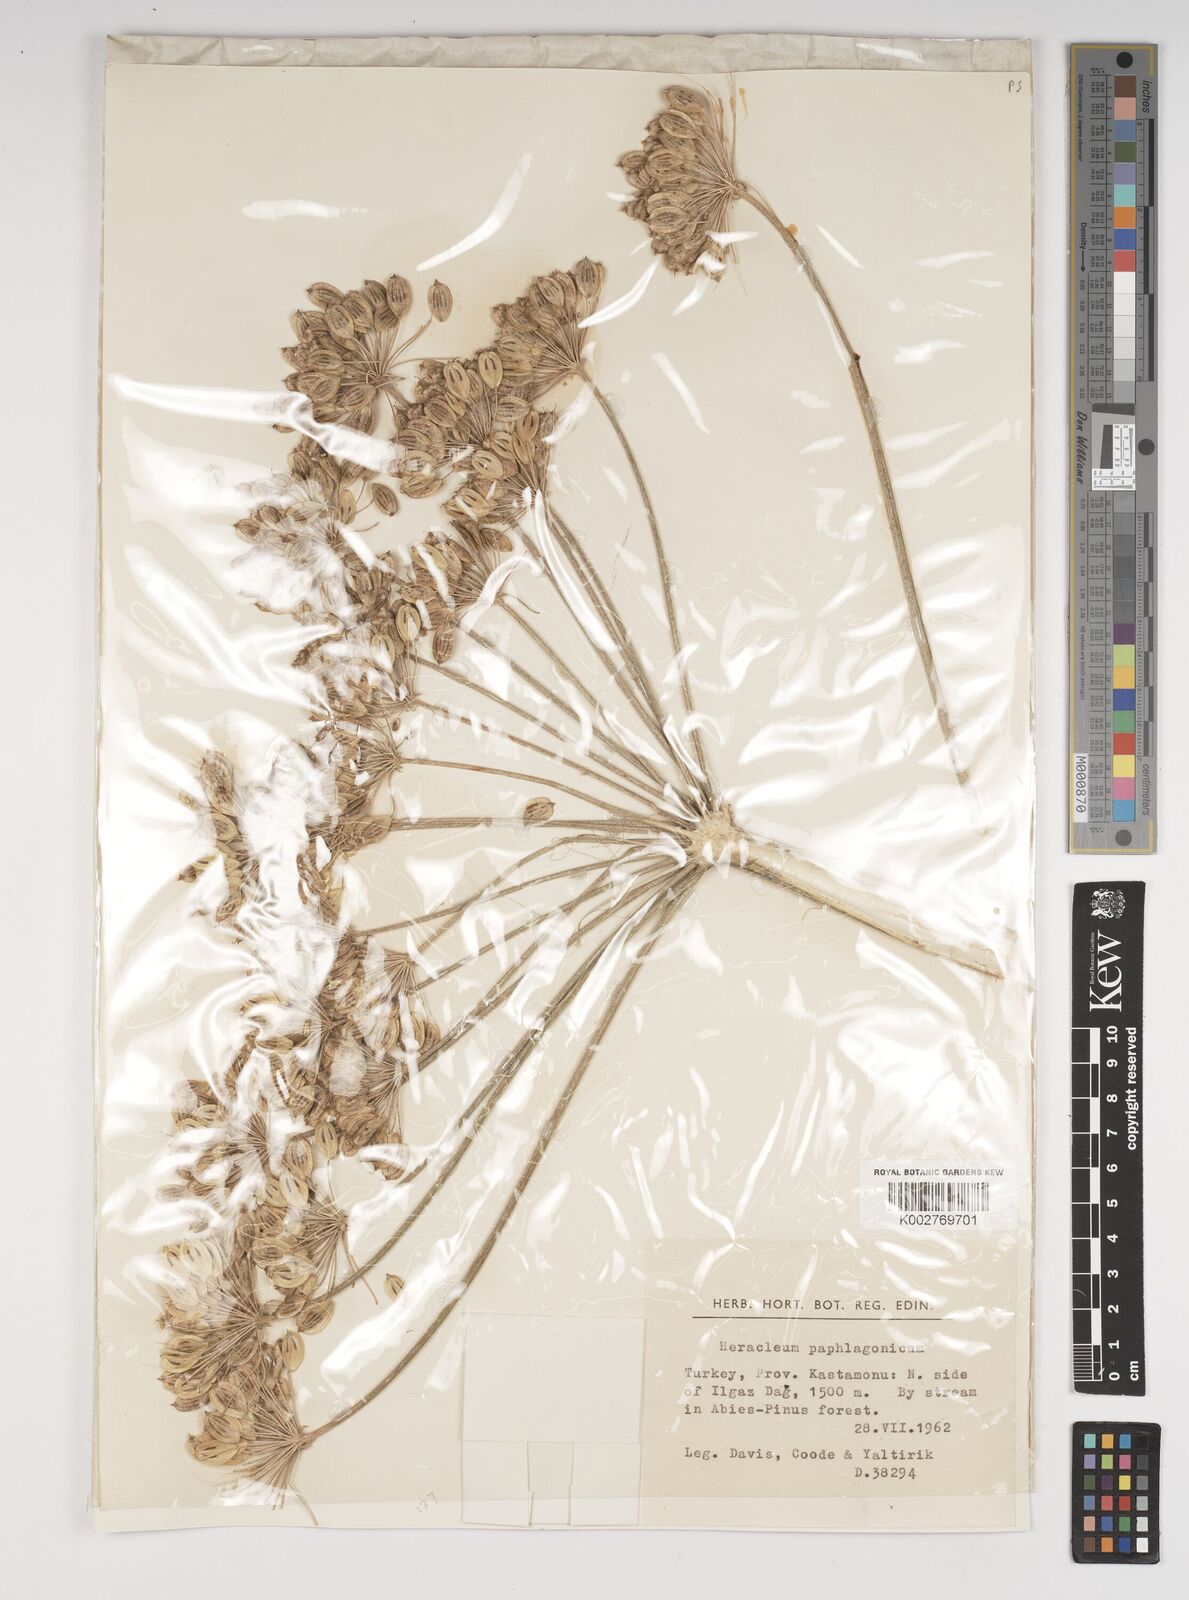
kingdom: Plantae
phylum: Tracheophyta
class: Magnoliopsida
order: Apiales
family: Apiaceae
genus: Heracleum
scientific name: Heracleum paphlagonicum
